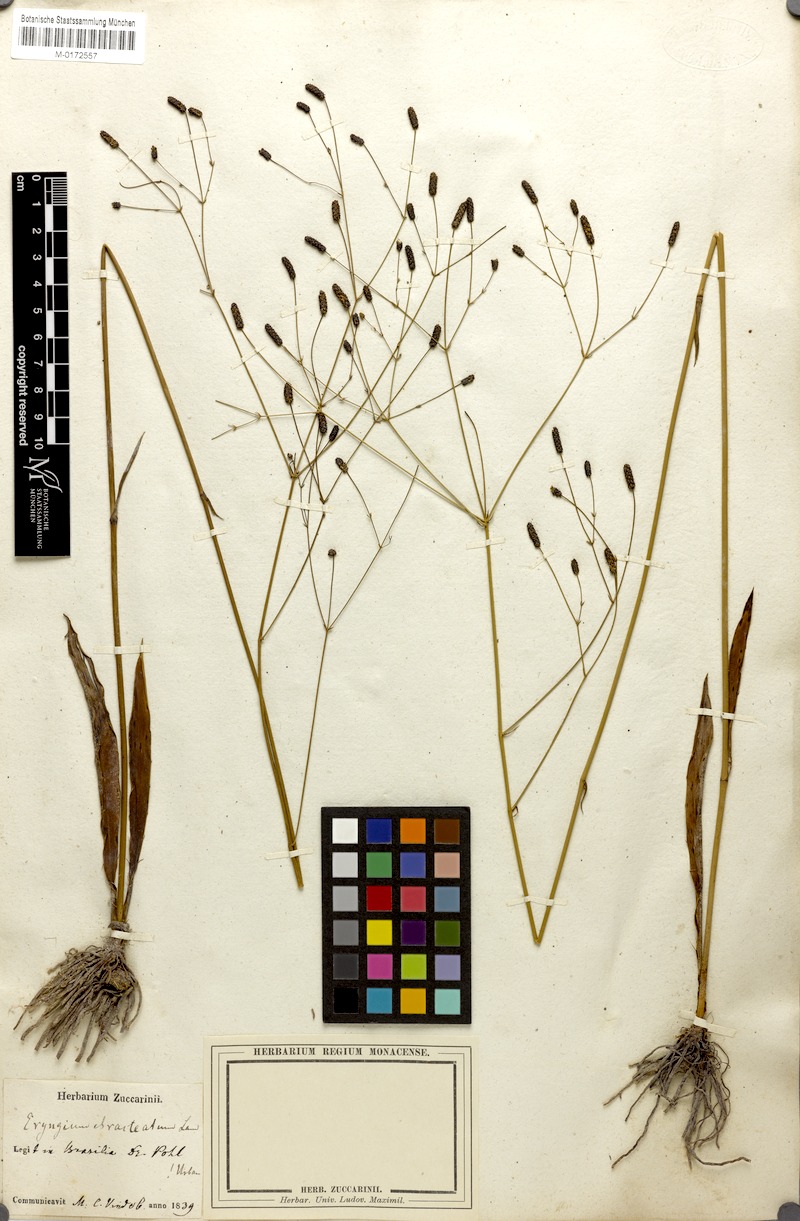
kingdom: Plantae
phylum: Tracheophyta
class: Magnoliopsida
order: Apiales
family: Apiaceae
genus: Eryngium
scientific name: Eryngium ebracteatum
